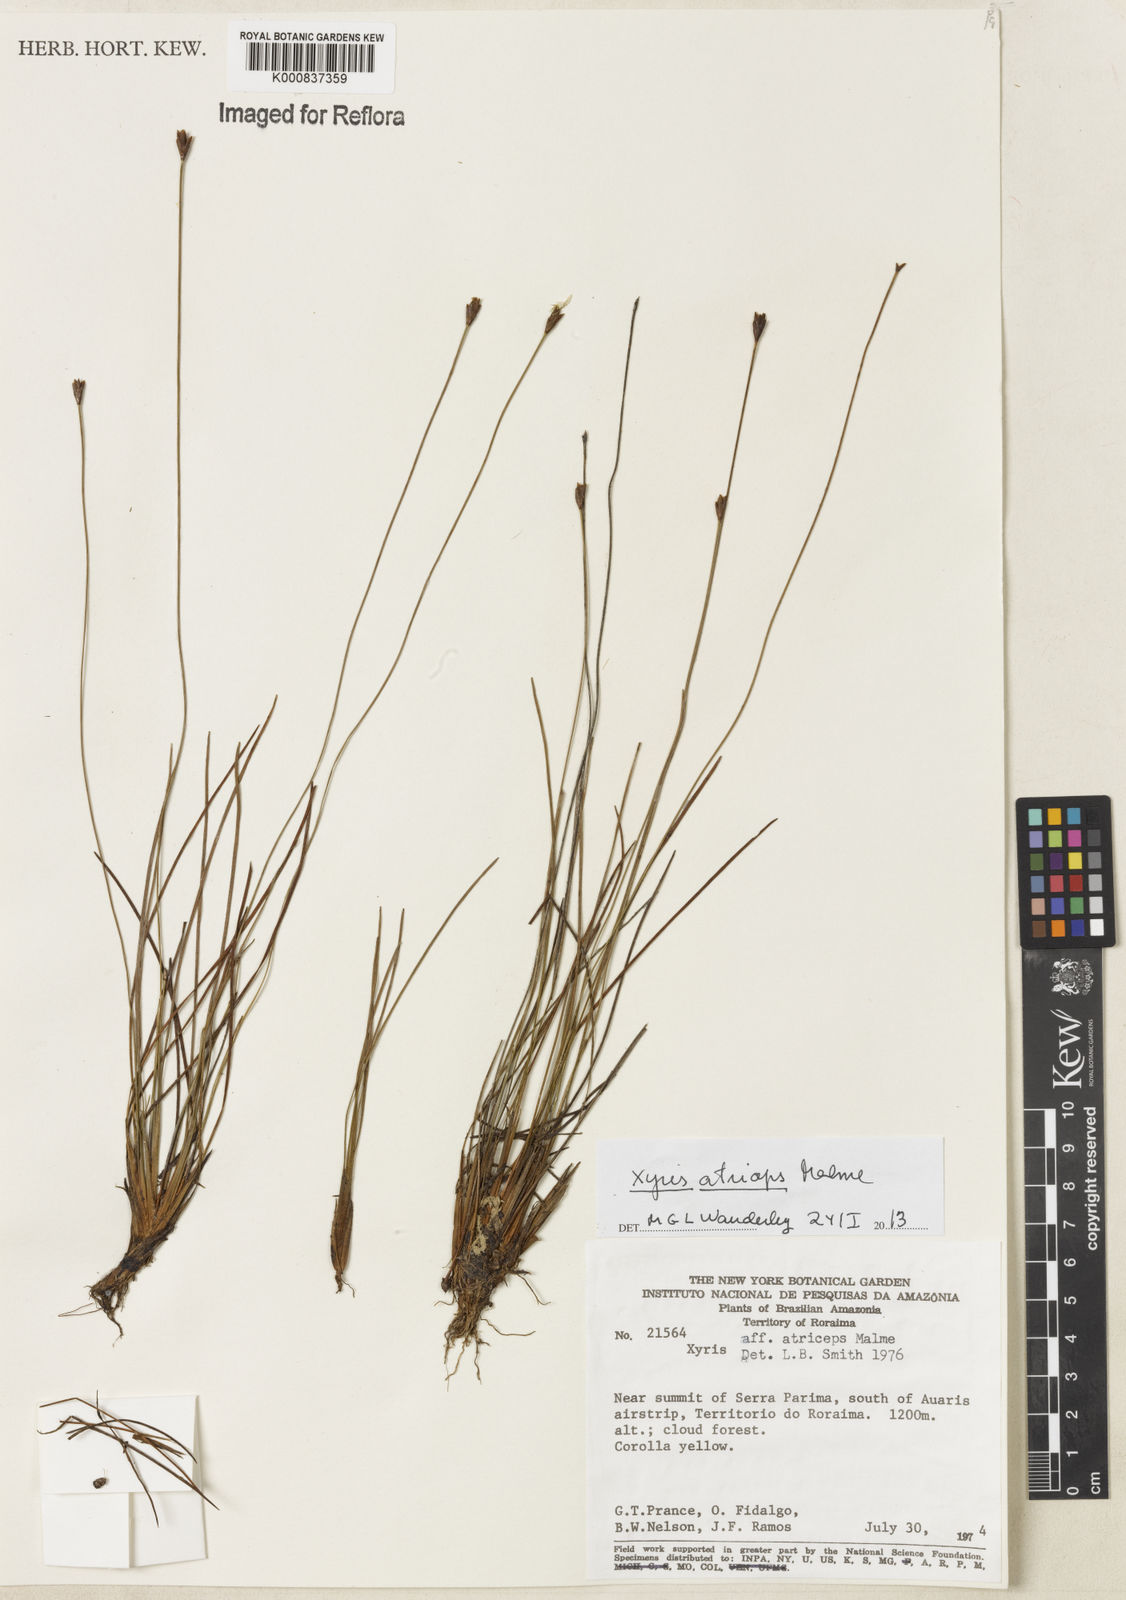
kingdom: Plantae
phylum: Tracheophyta
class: Liliopsida
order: Poales
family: Xyridaceae
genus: Xyris
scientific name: Xyris atriceps
